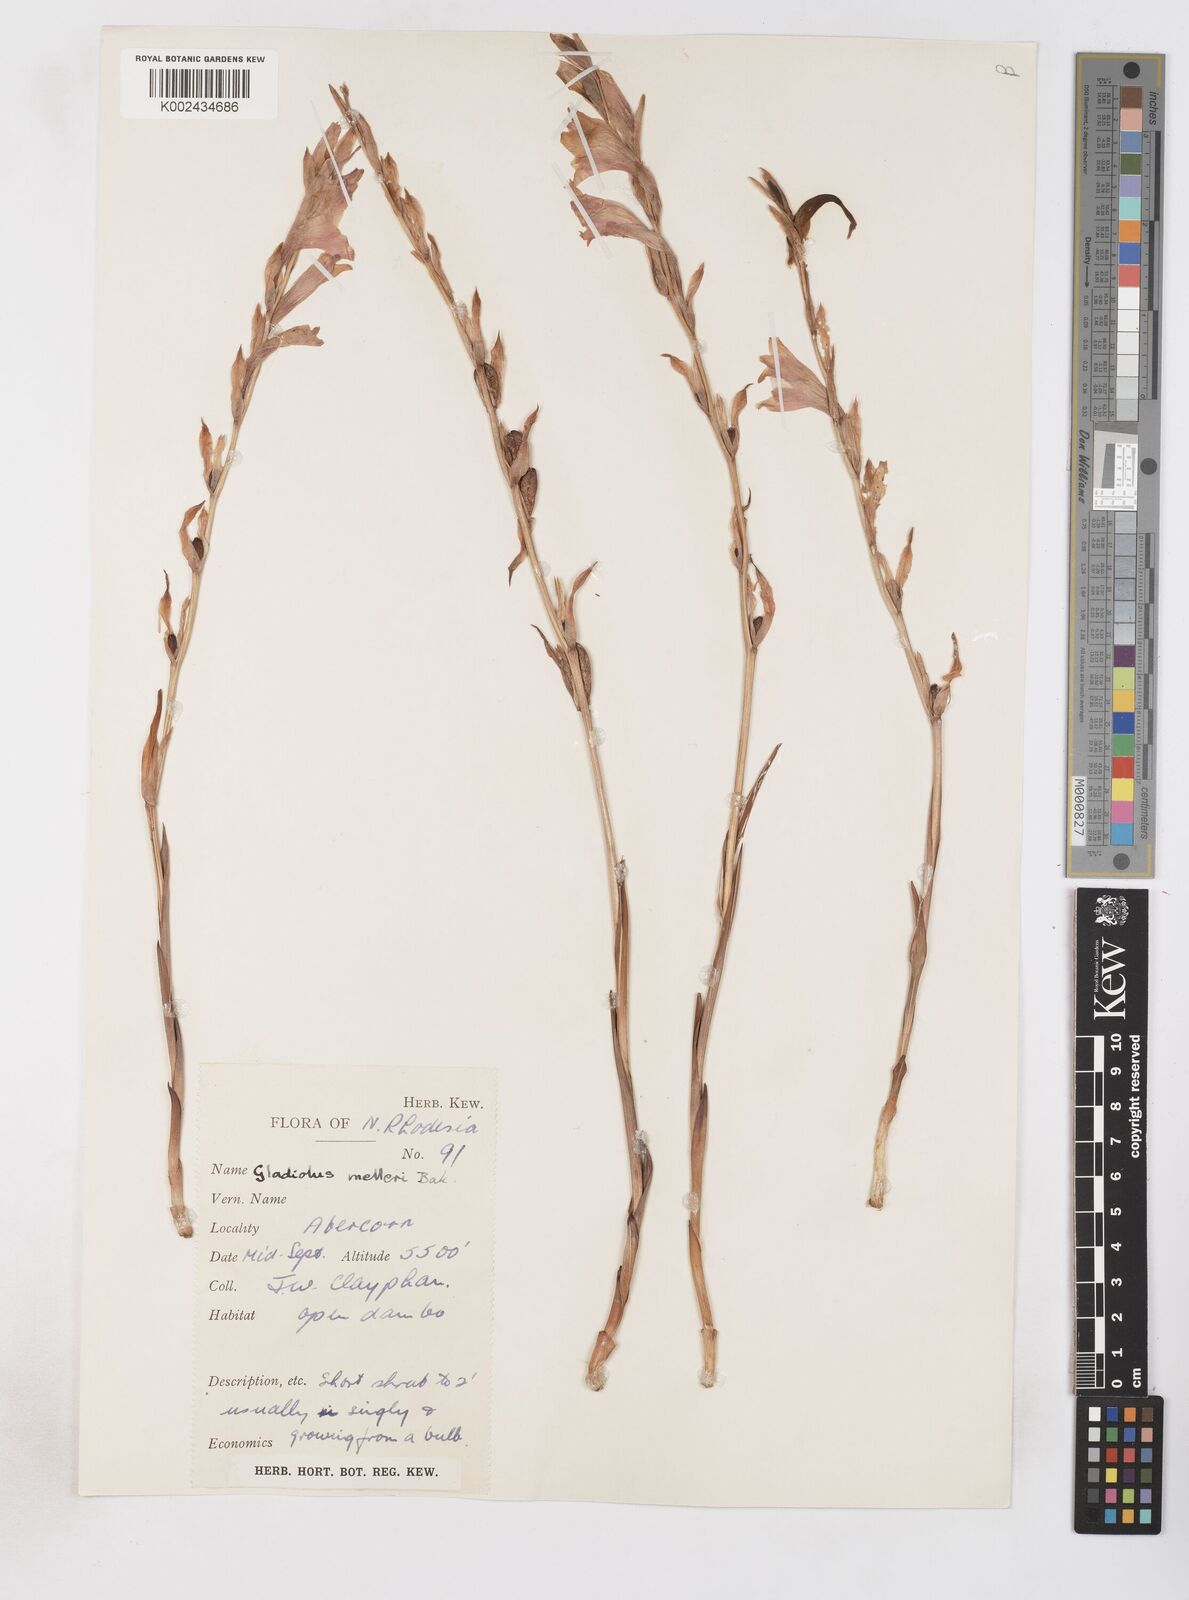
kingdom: Plantae
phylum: Tracheophyta
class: Liliopsida
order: Asparagales
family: Iridaceae
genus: Gladiolus
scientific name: Gladiolus melleri
